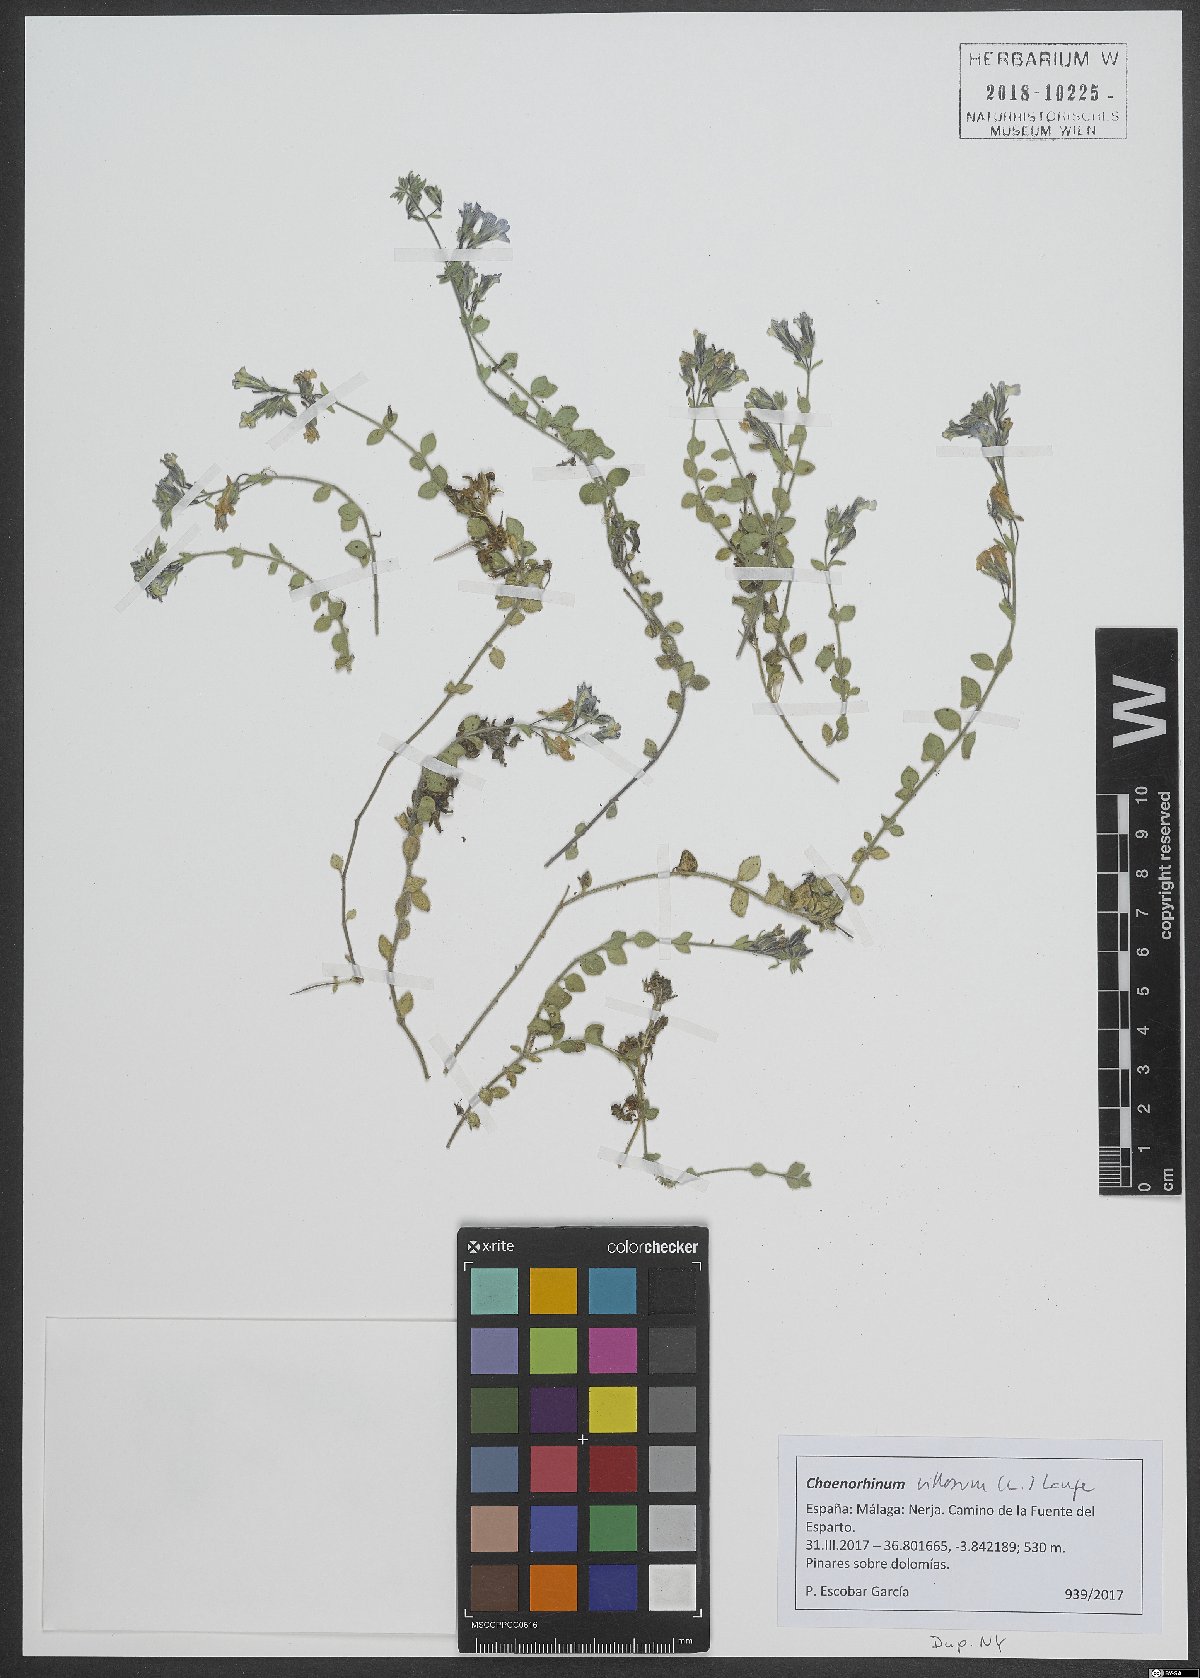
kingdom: Plantae
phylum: Tracheophyta
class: Magnoliopsida
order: Lamiales
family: Plantaginaceae
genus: Chaenorhinum
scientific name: Chaenorhinum villosum
